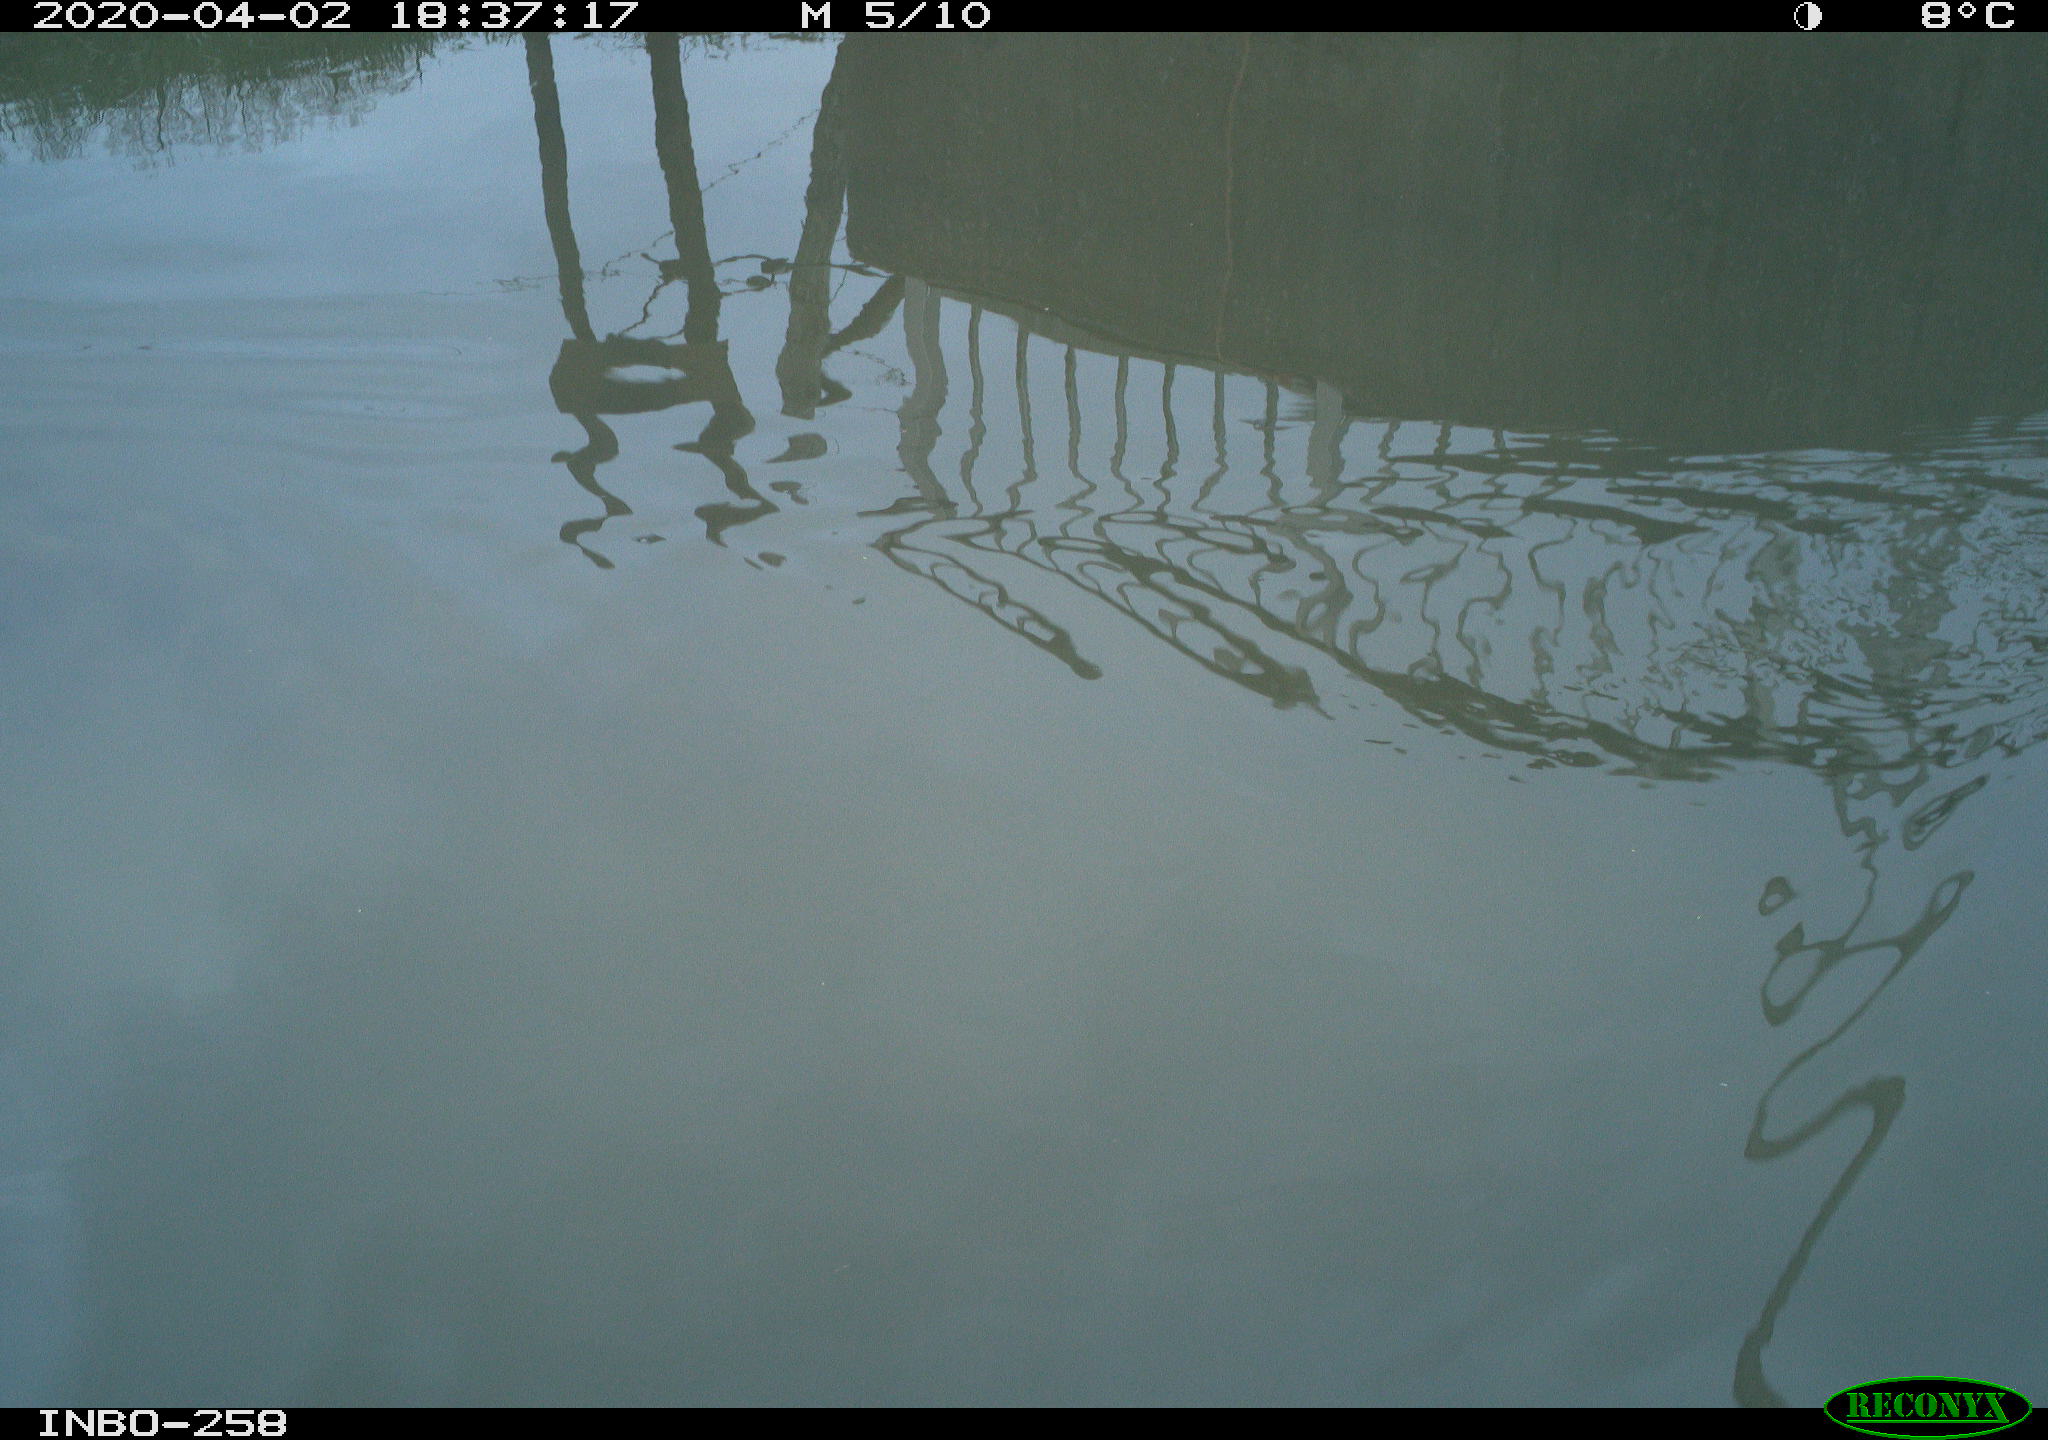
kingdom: Animalia
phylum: Chordata
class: Aves
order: Gruiformes
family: Rallidae
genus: Gallinula
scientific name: Gallinula chloropus
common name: Common moorhen
